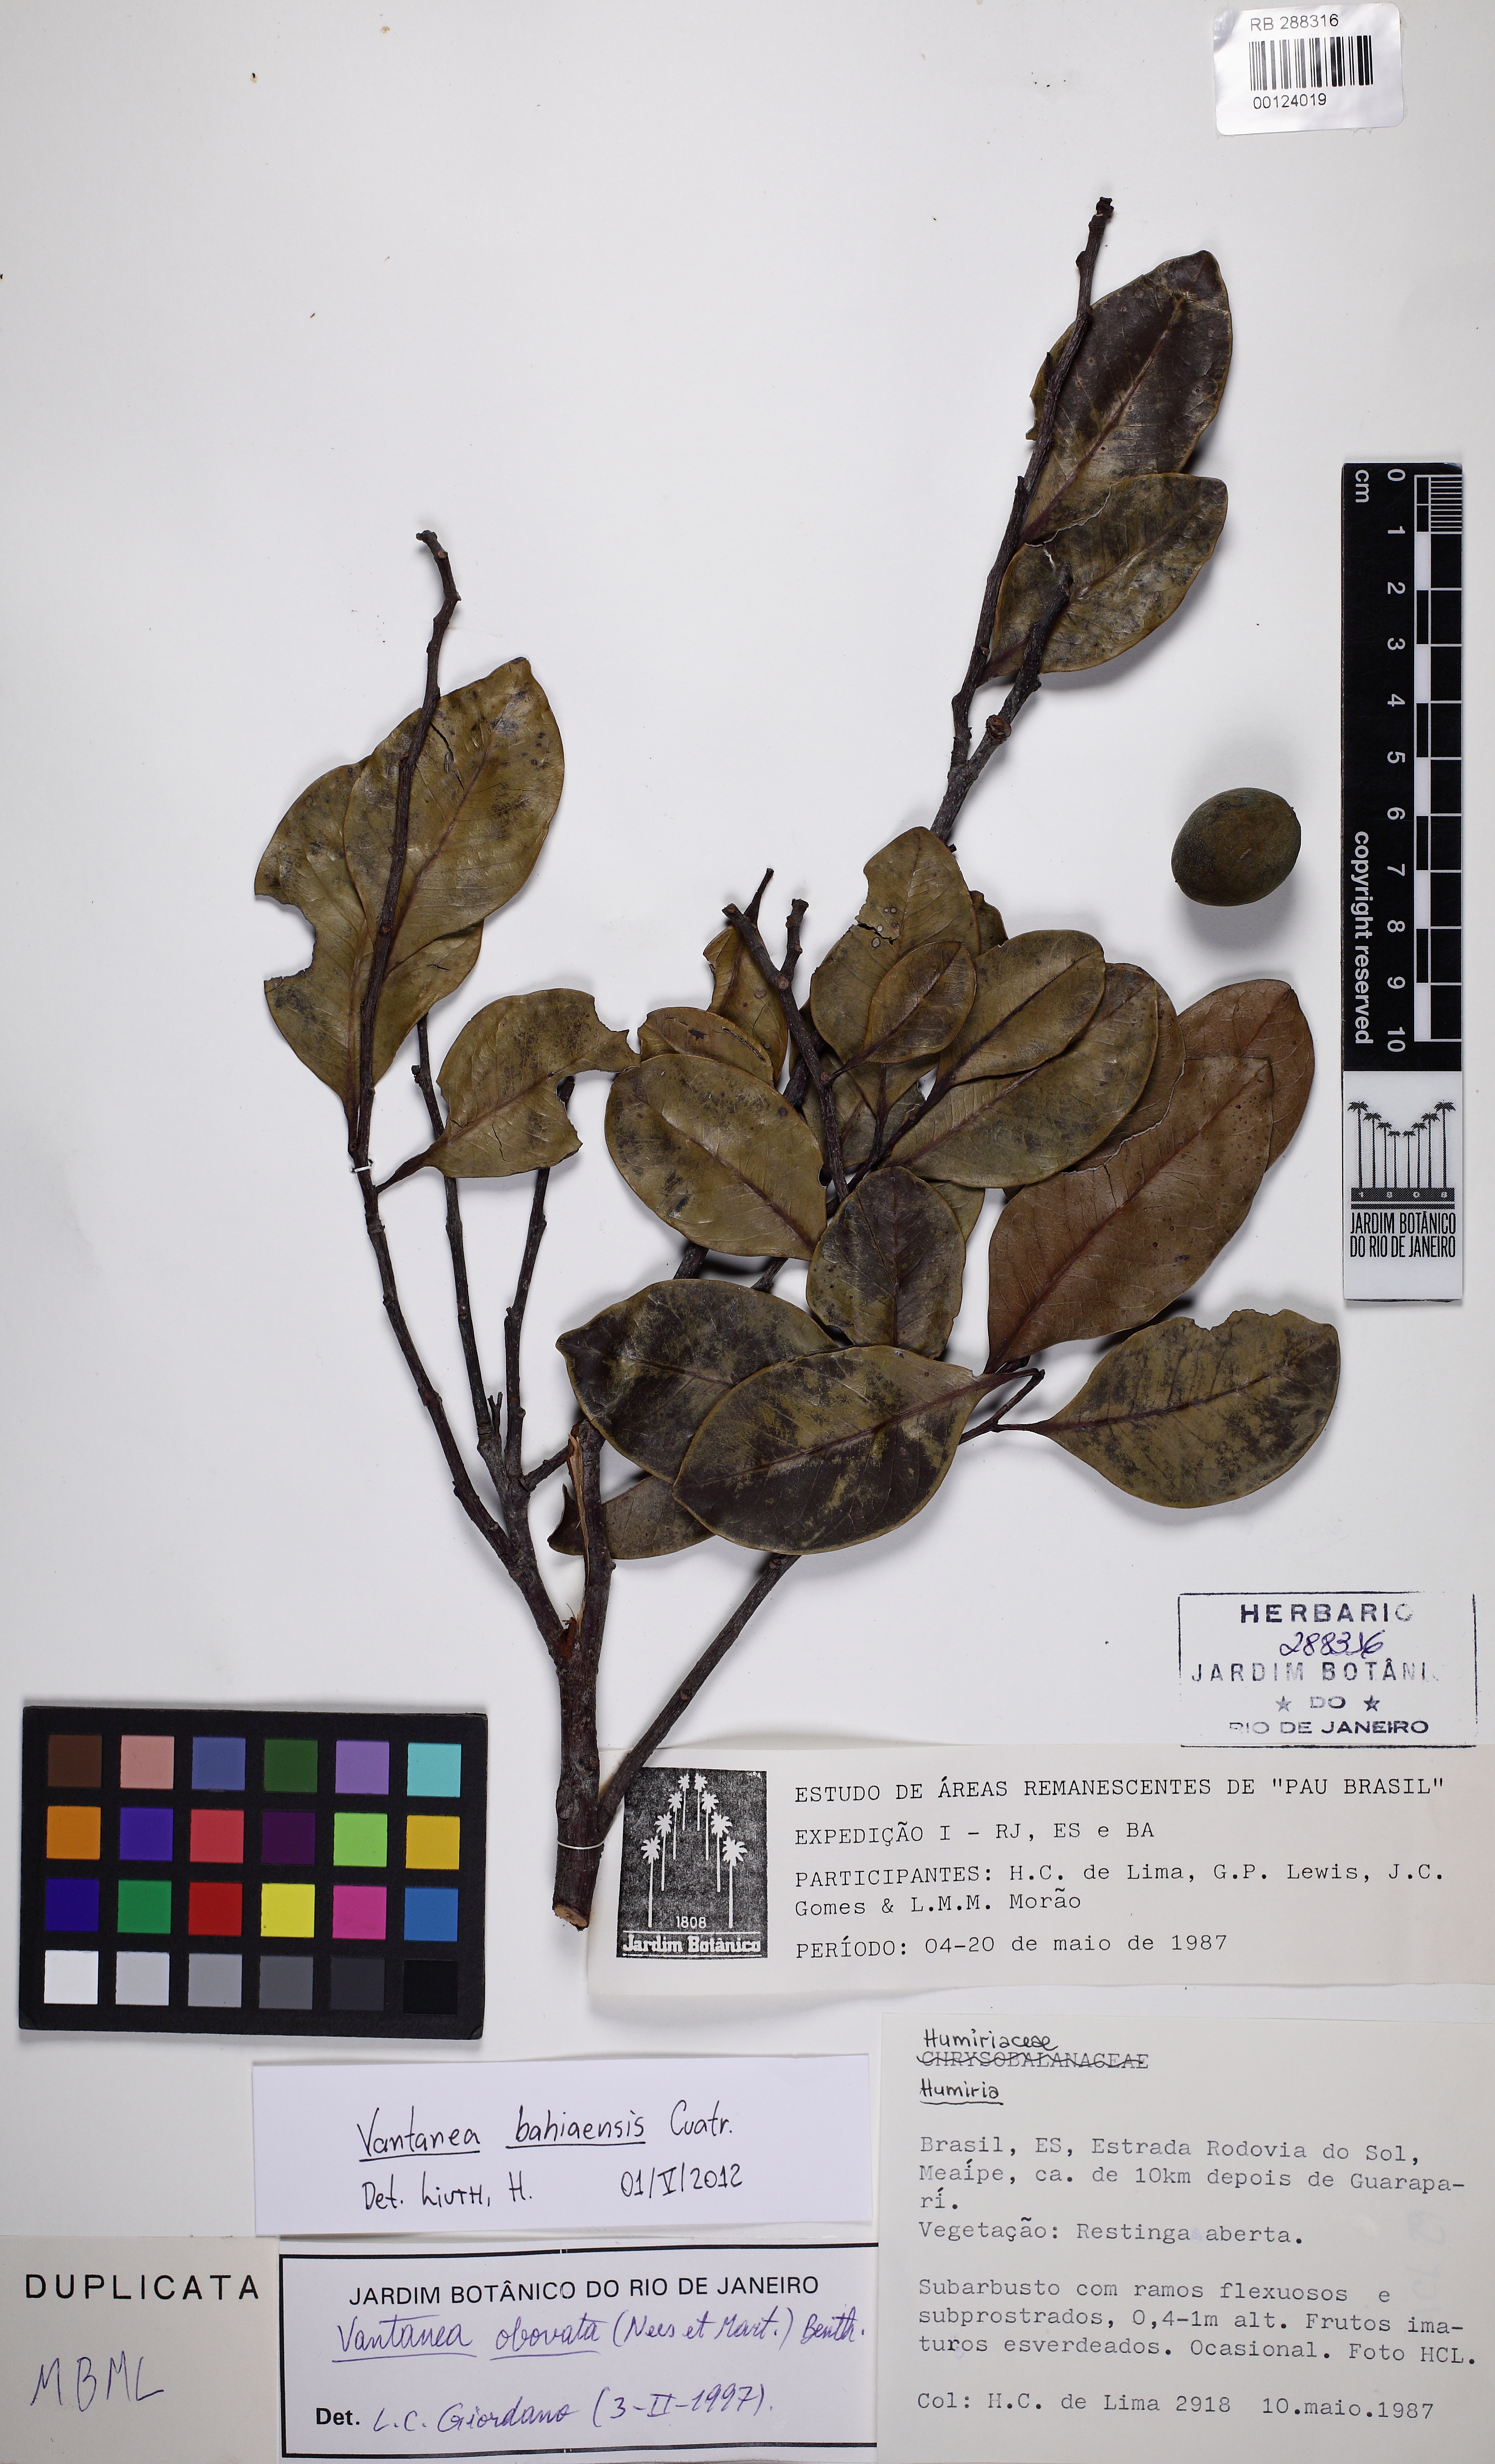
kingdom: Plantae
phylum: Tracheophyta
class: Magnoliopsida
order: Malpighiales
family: Humiriaceae
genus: Vantanea
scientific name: Vantanea bahiaensis
